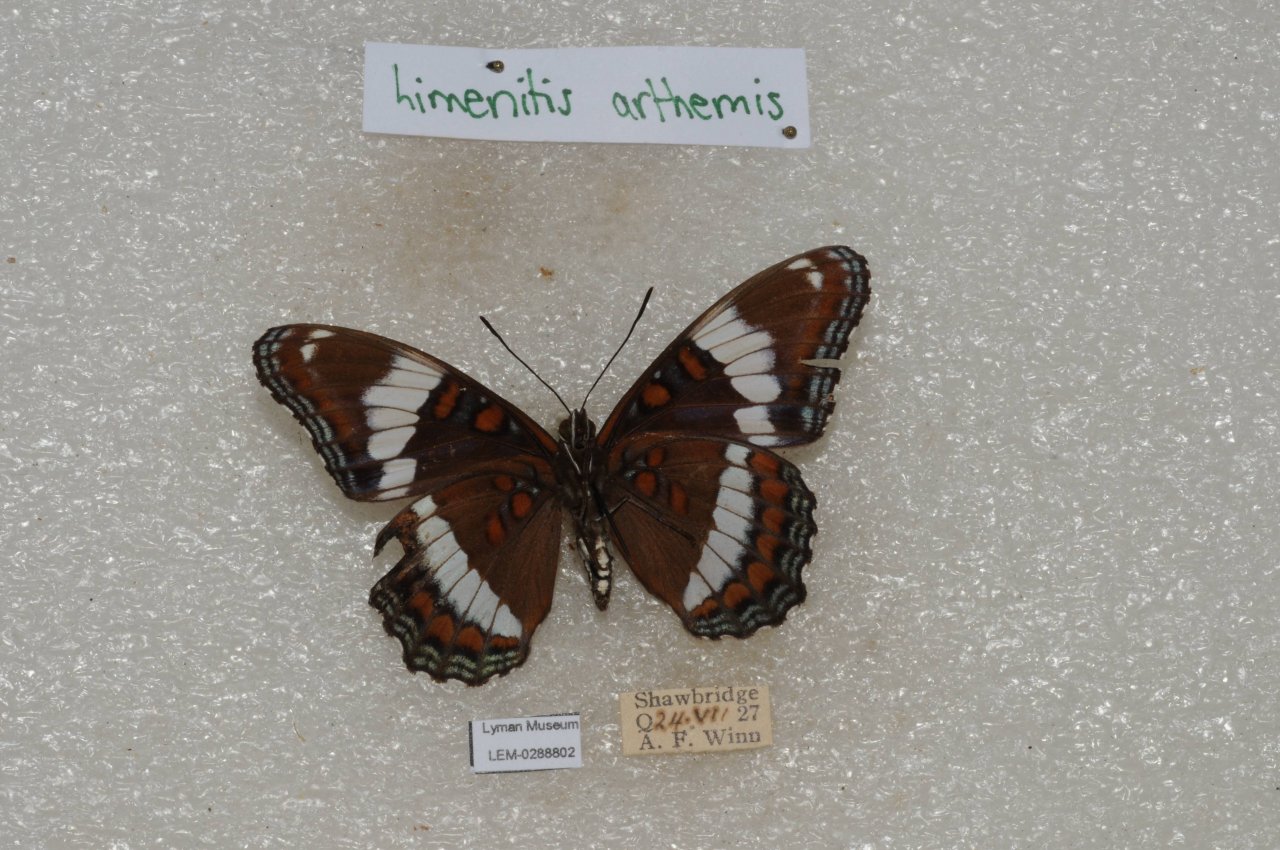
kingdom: Animalia
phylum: Arthropoda
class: Insecta
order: Lepidoptera
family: Nymphalidae
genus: Limenitis
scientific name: Limenitis arthemis
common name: Red-spotted Admiral
